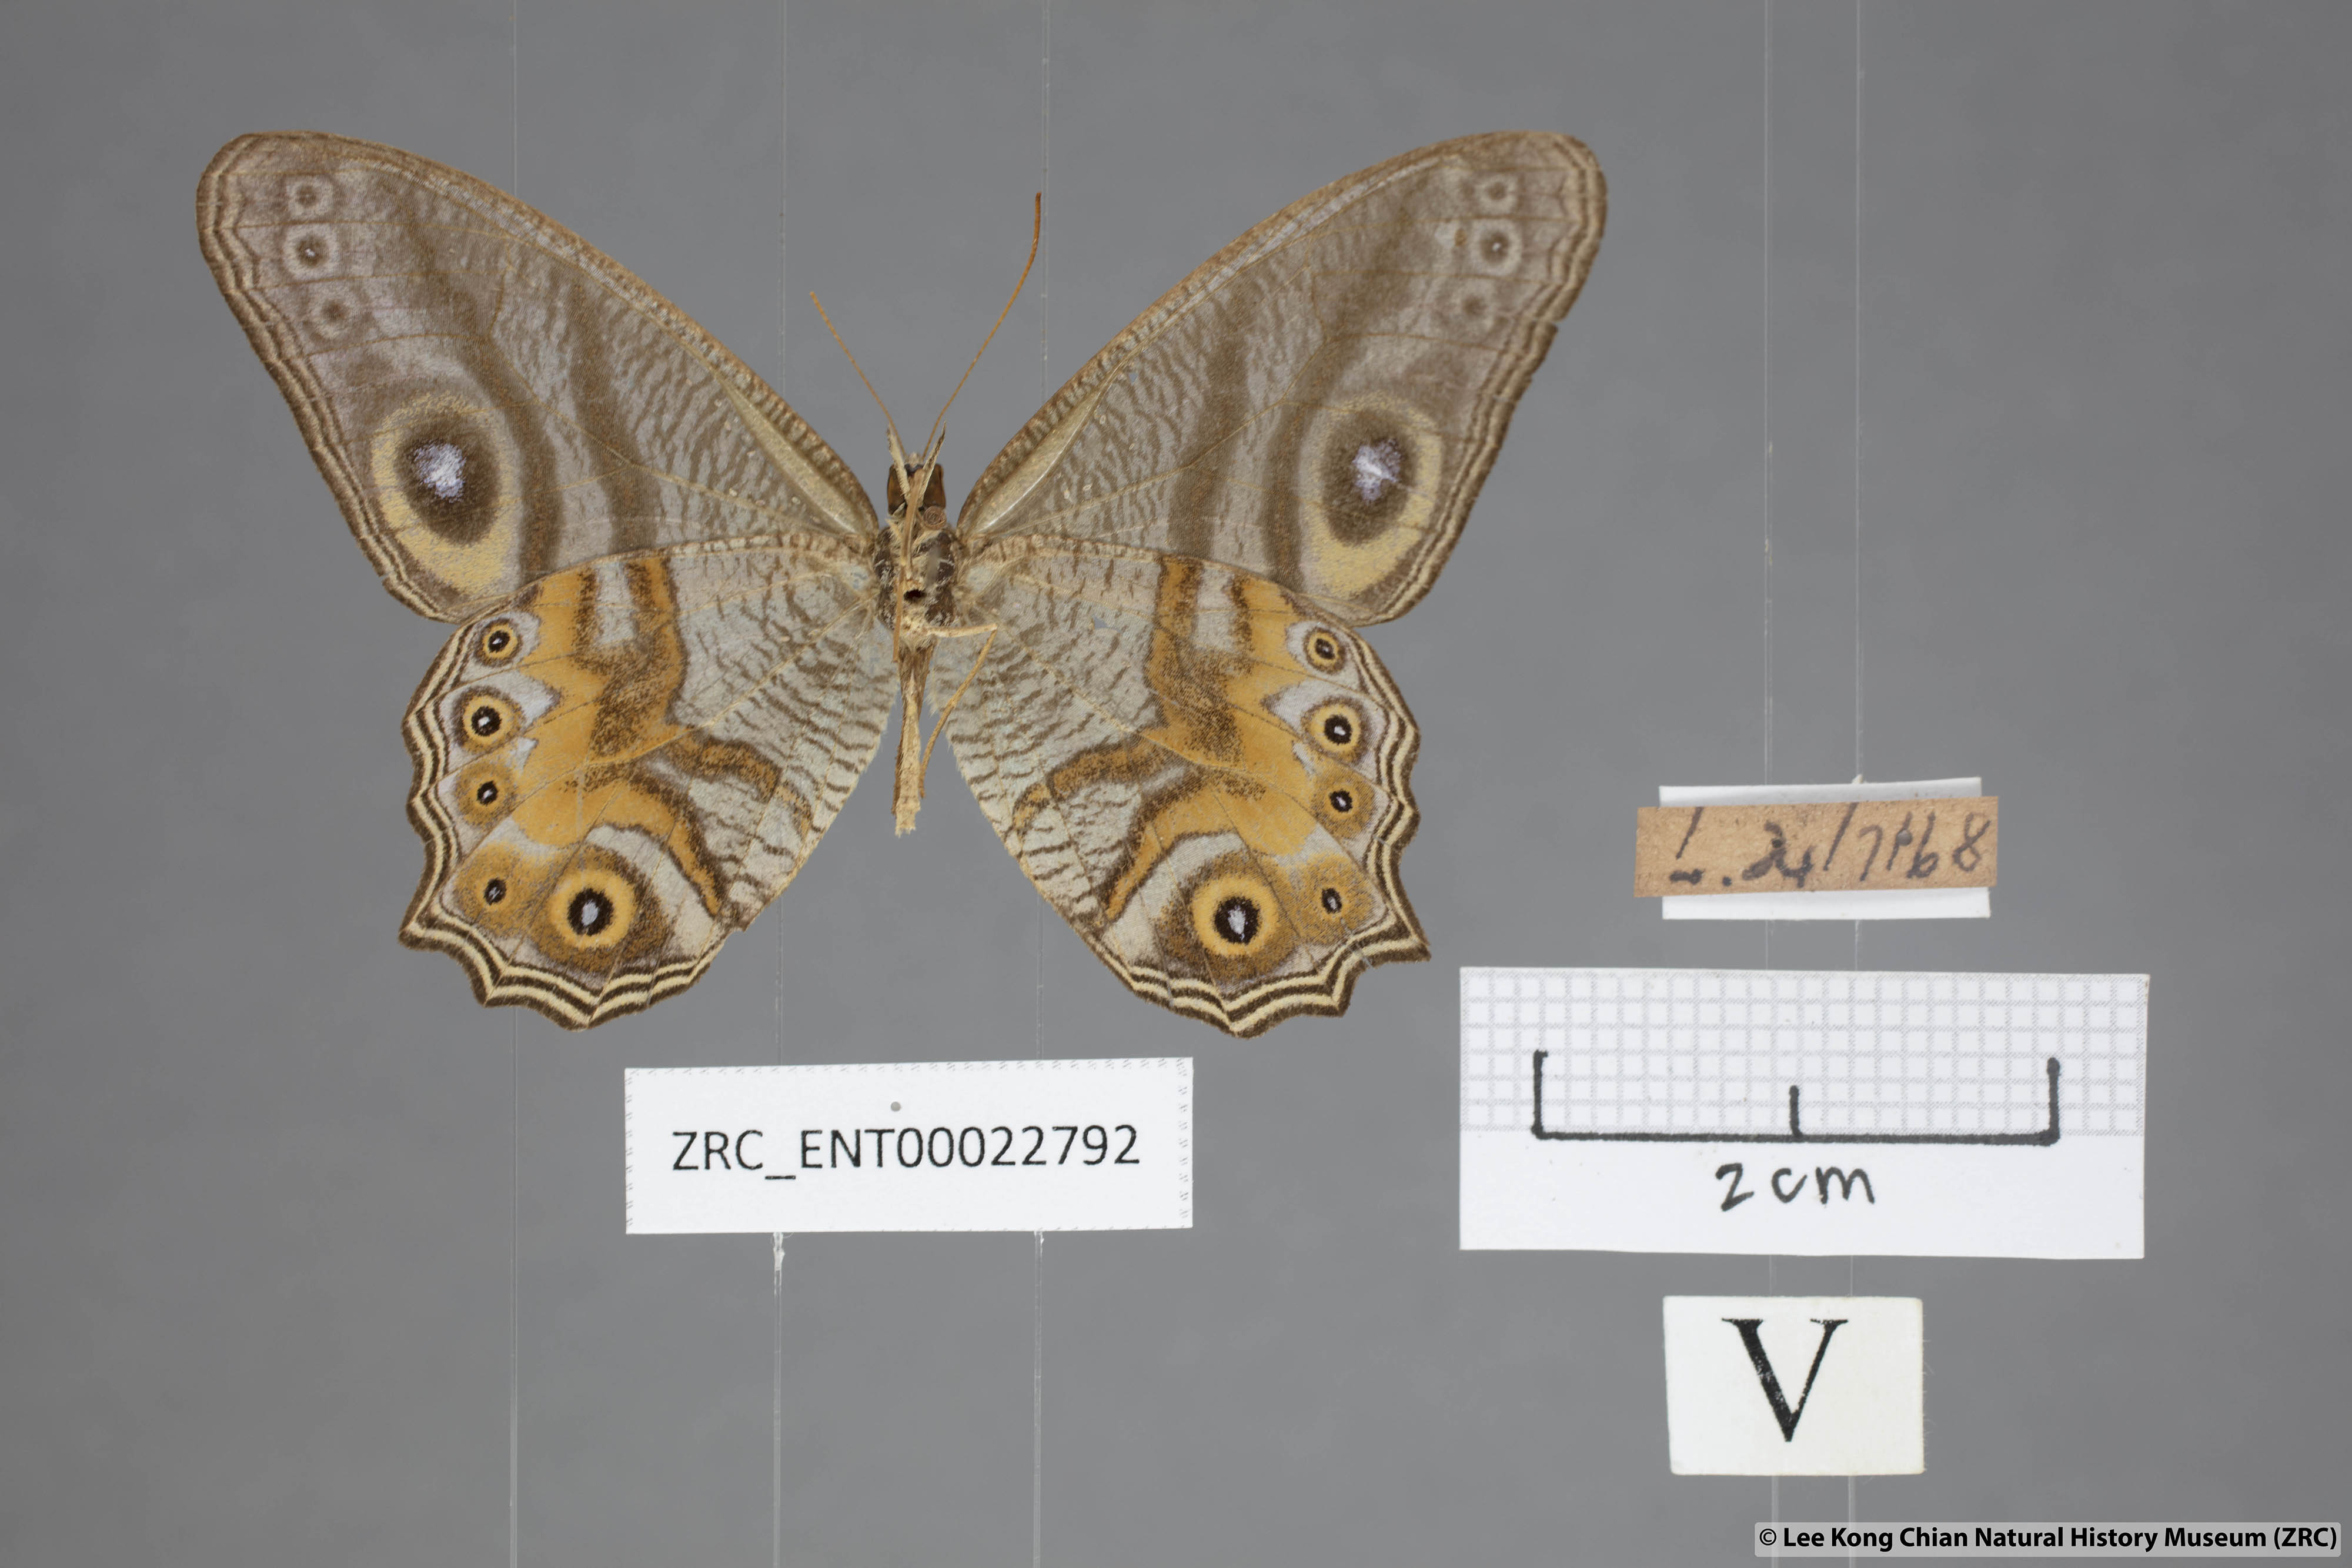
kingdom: Animalia
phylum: Arthropoda
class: Insecta
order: Lepidoptera
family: Nymphalidae
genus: Erites
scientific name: Erites angularis
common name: Angled cyclops
